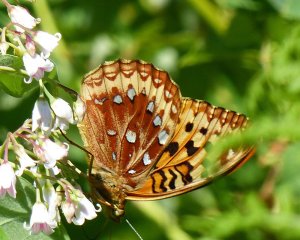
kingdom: Animalia
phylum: Arthropoda
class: Insecta
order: Lepidoptera
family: Nymphalidae
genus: Speyeria
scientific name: Speyeria cybele
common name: Great Spangled Fritillary
